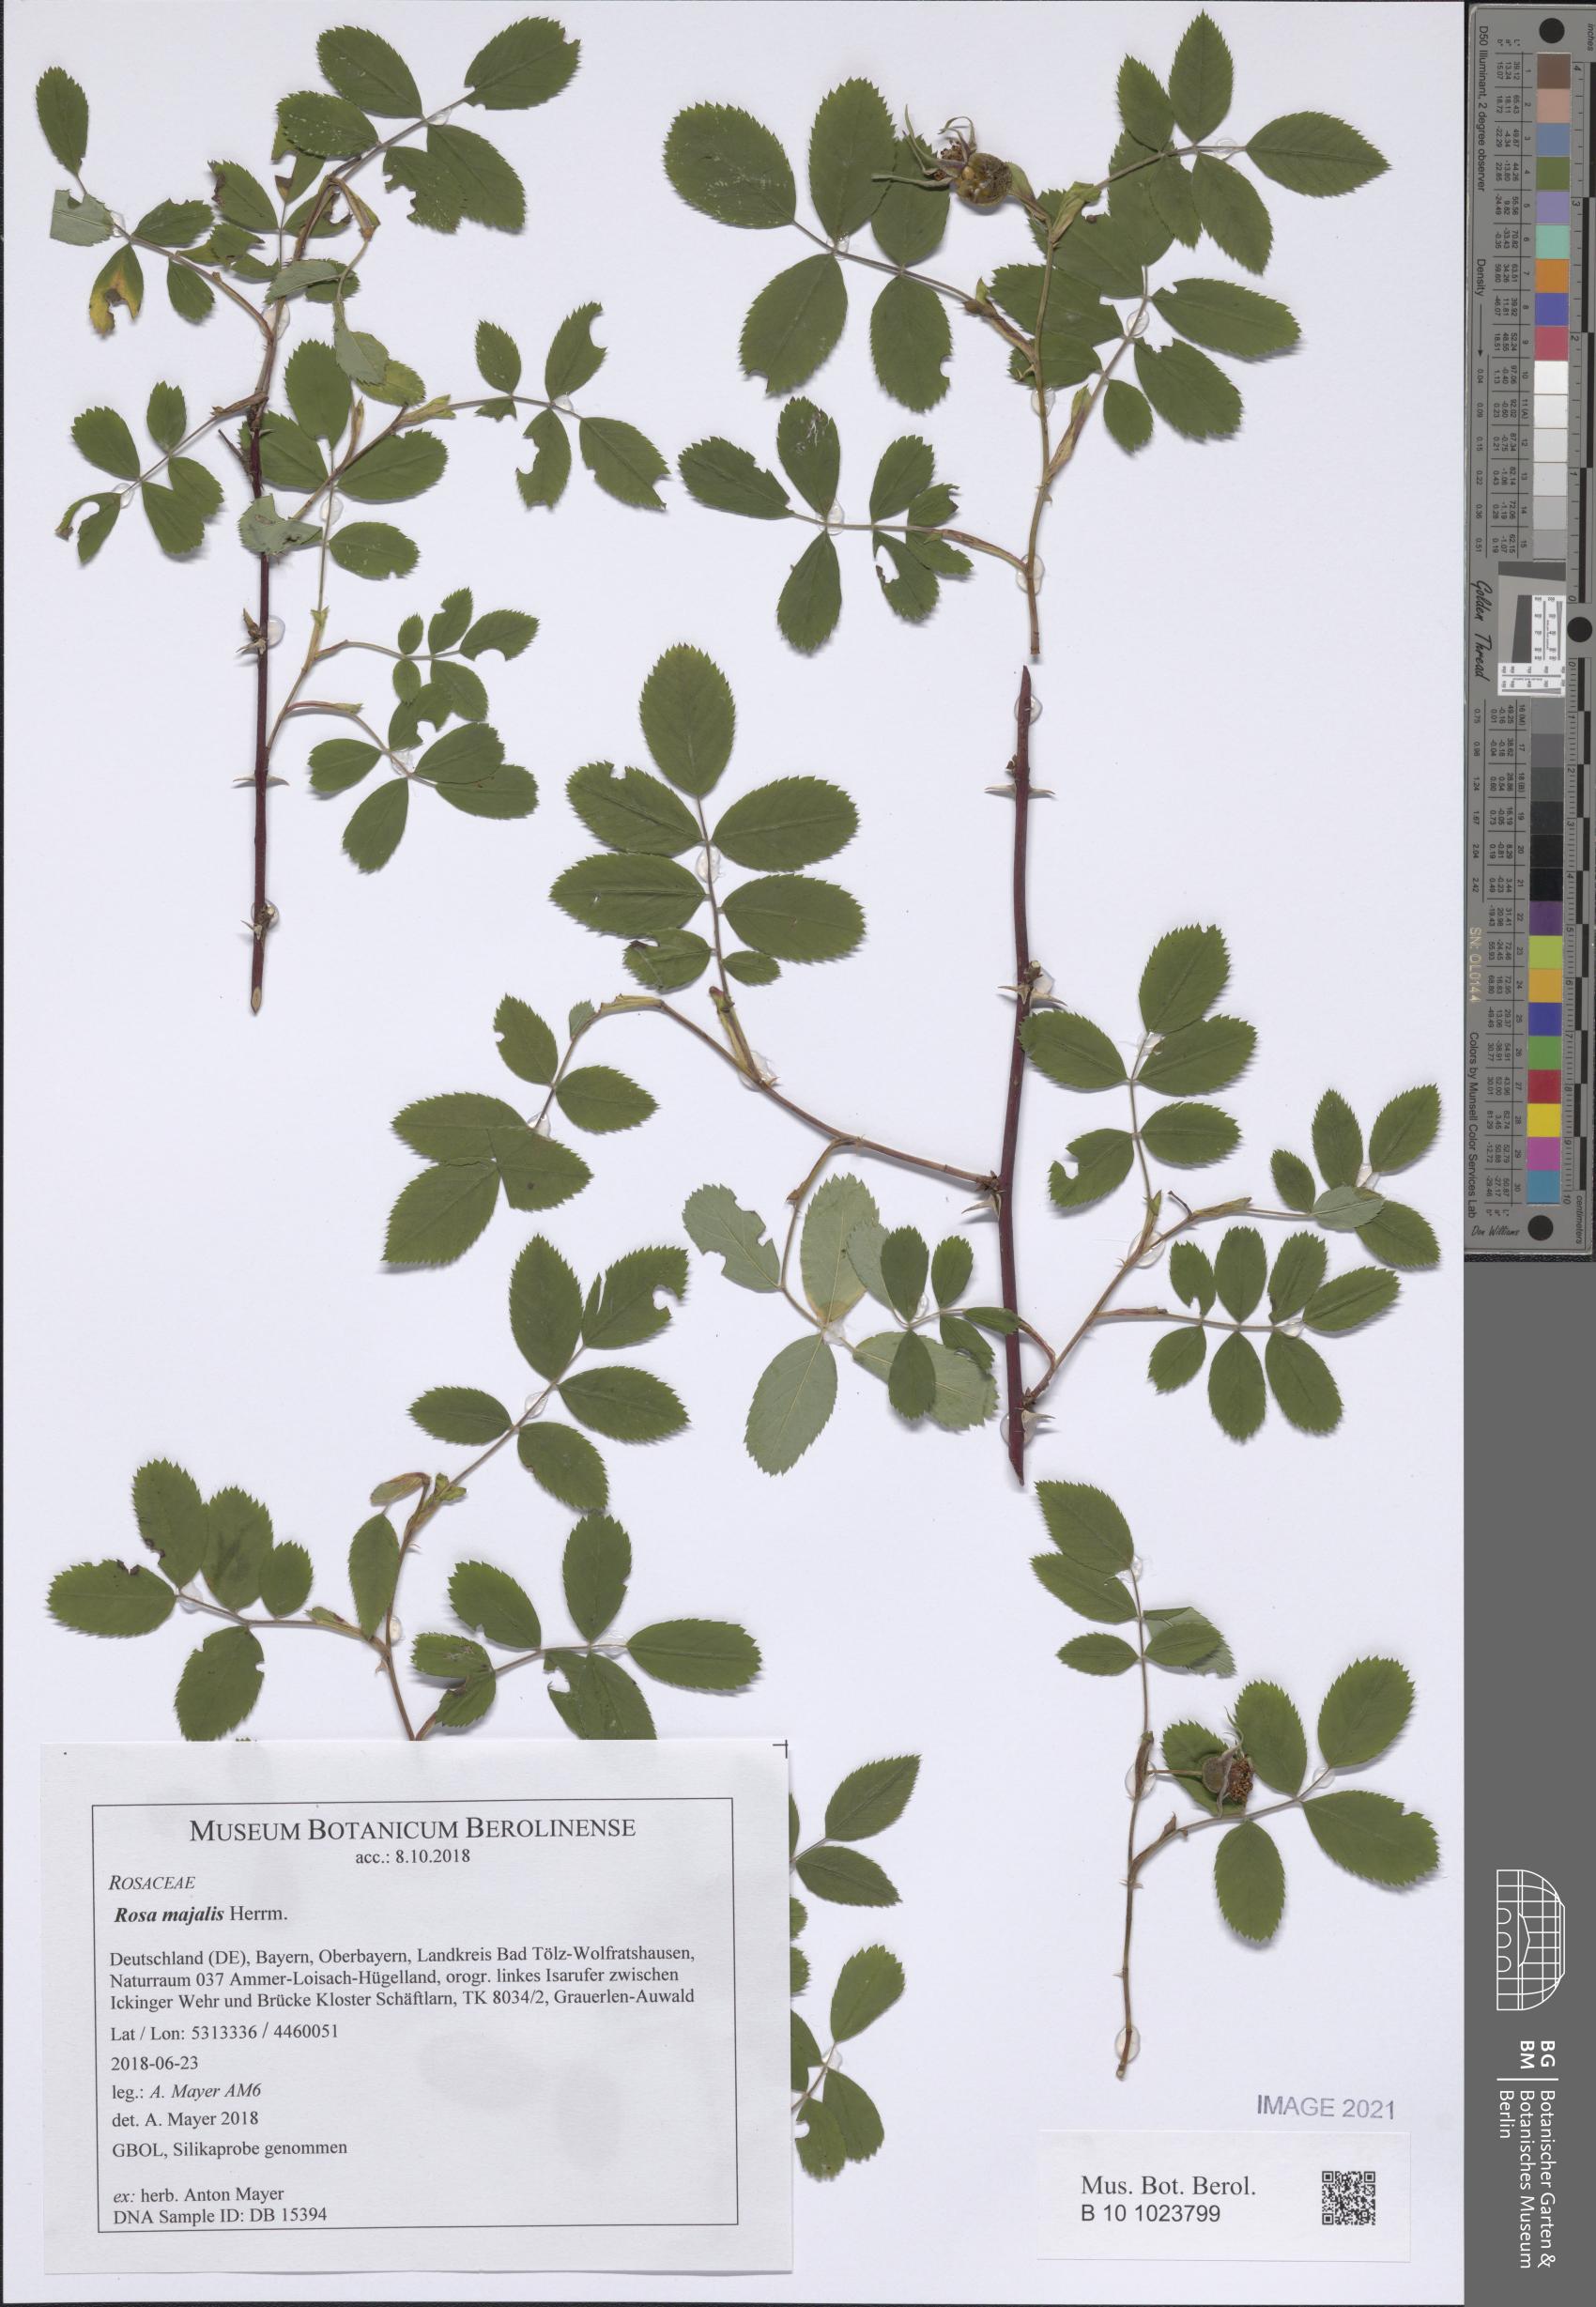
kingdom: Plantae
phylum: Tracheophyta
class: Magnoliopsida
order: Rosales
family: Rosaceae
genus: Rosa
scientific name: Rosa majalis
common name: Cinnamon rose
